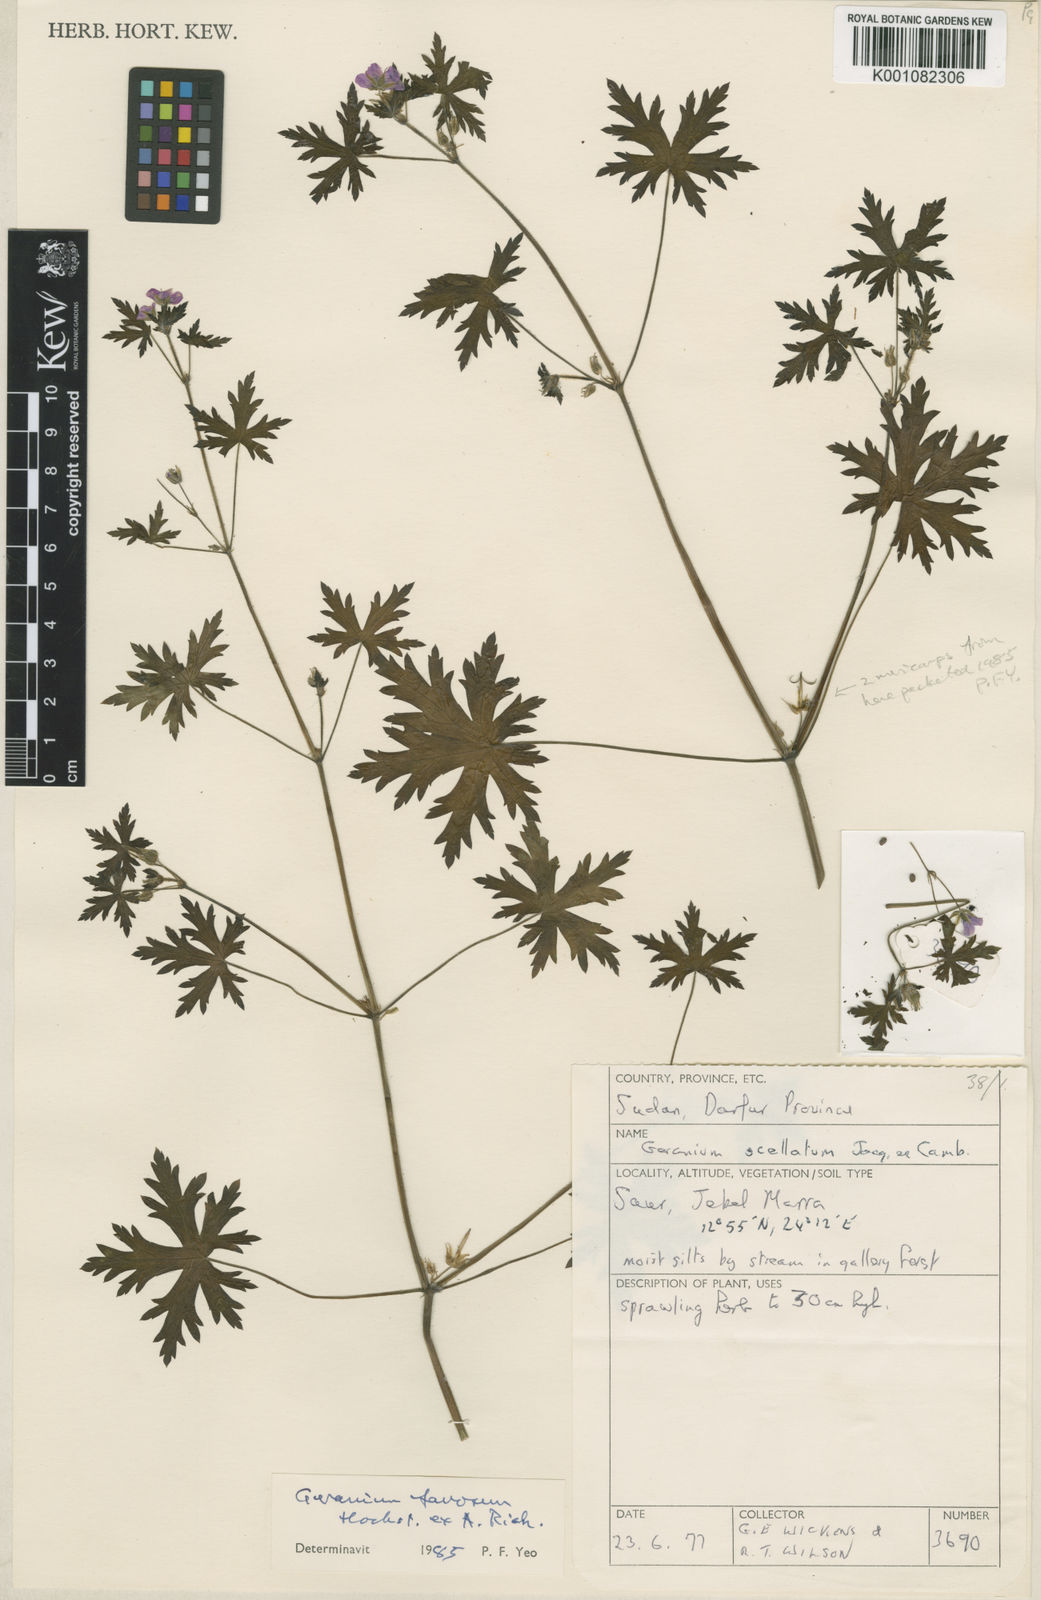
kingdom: Plantae
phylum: Tracheophyta
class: Magnoliopsida
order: Geraniales
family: Geraniaceae
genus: Geranium
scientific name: Geranium favosum
